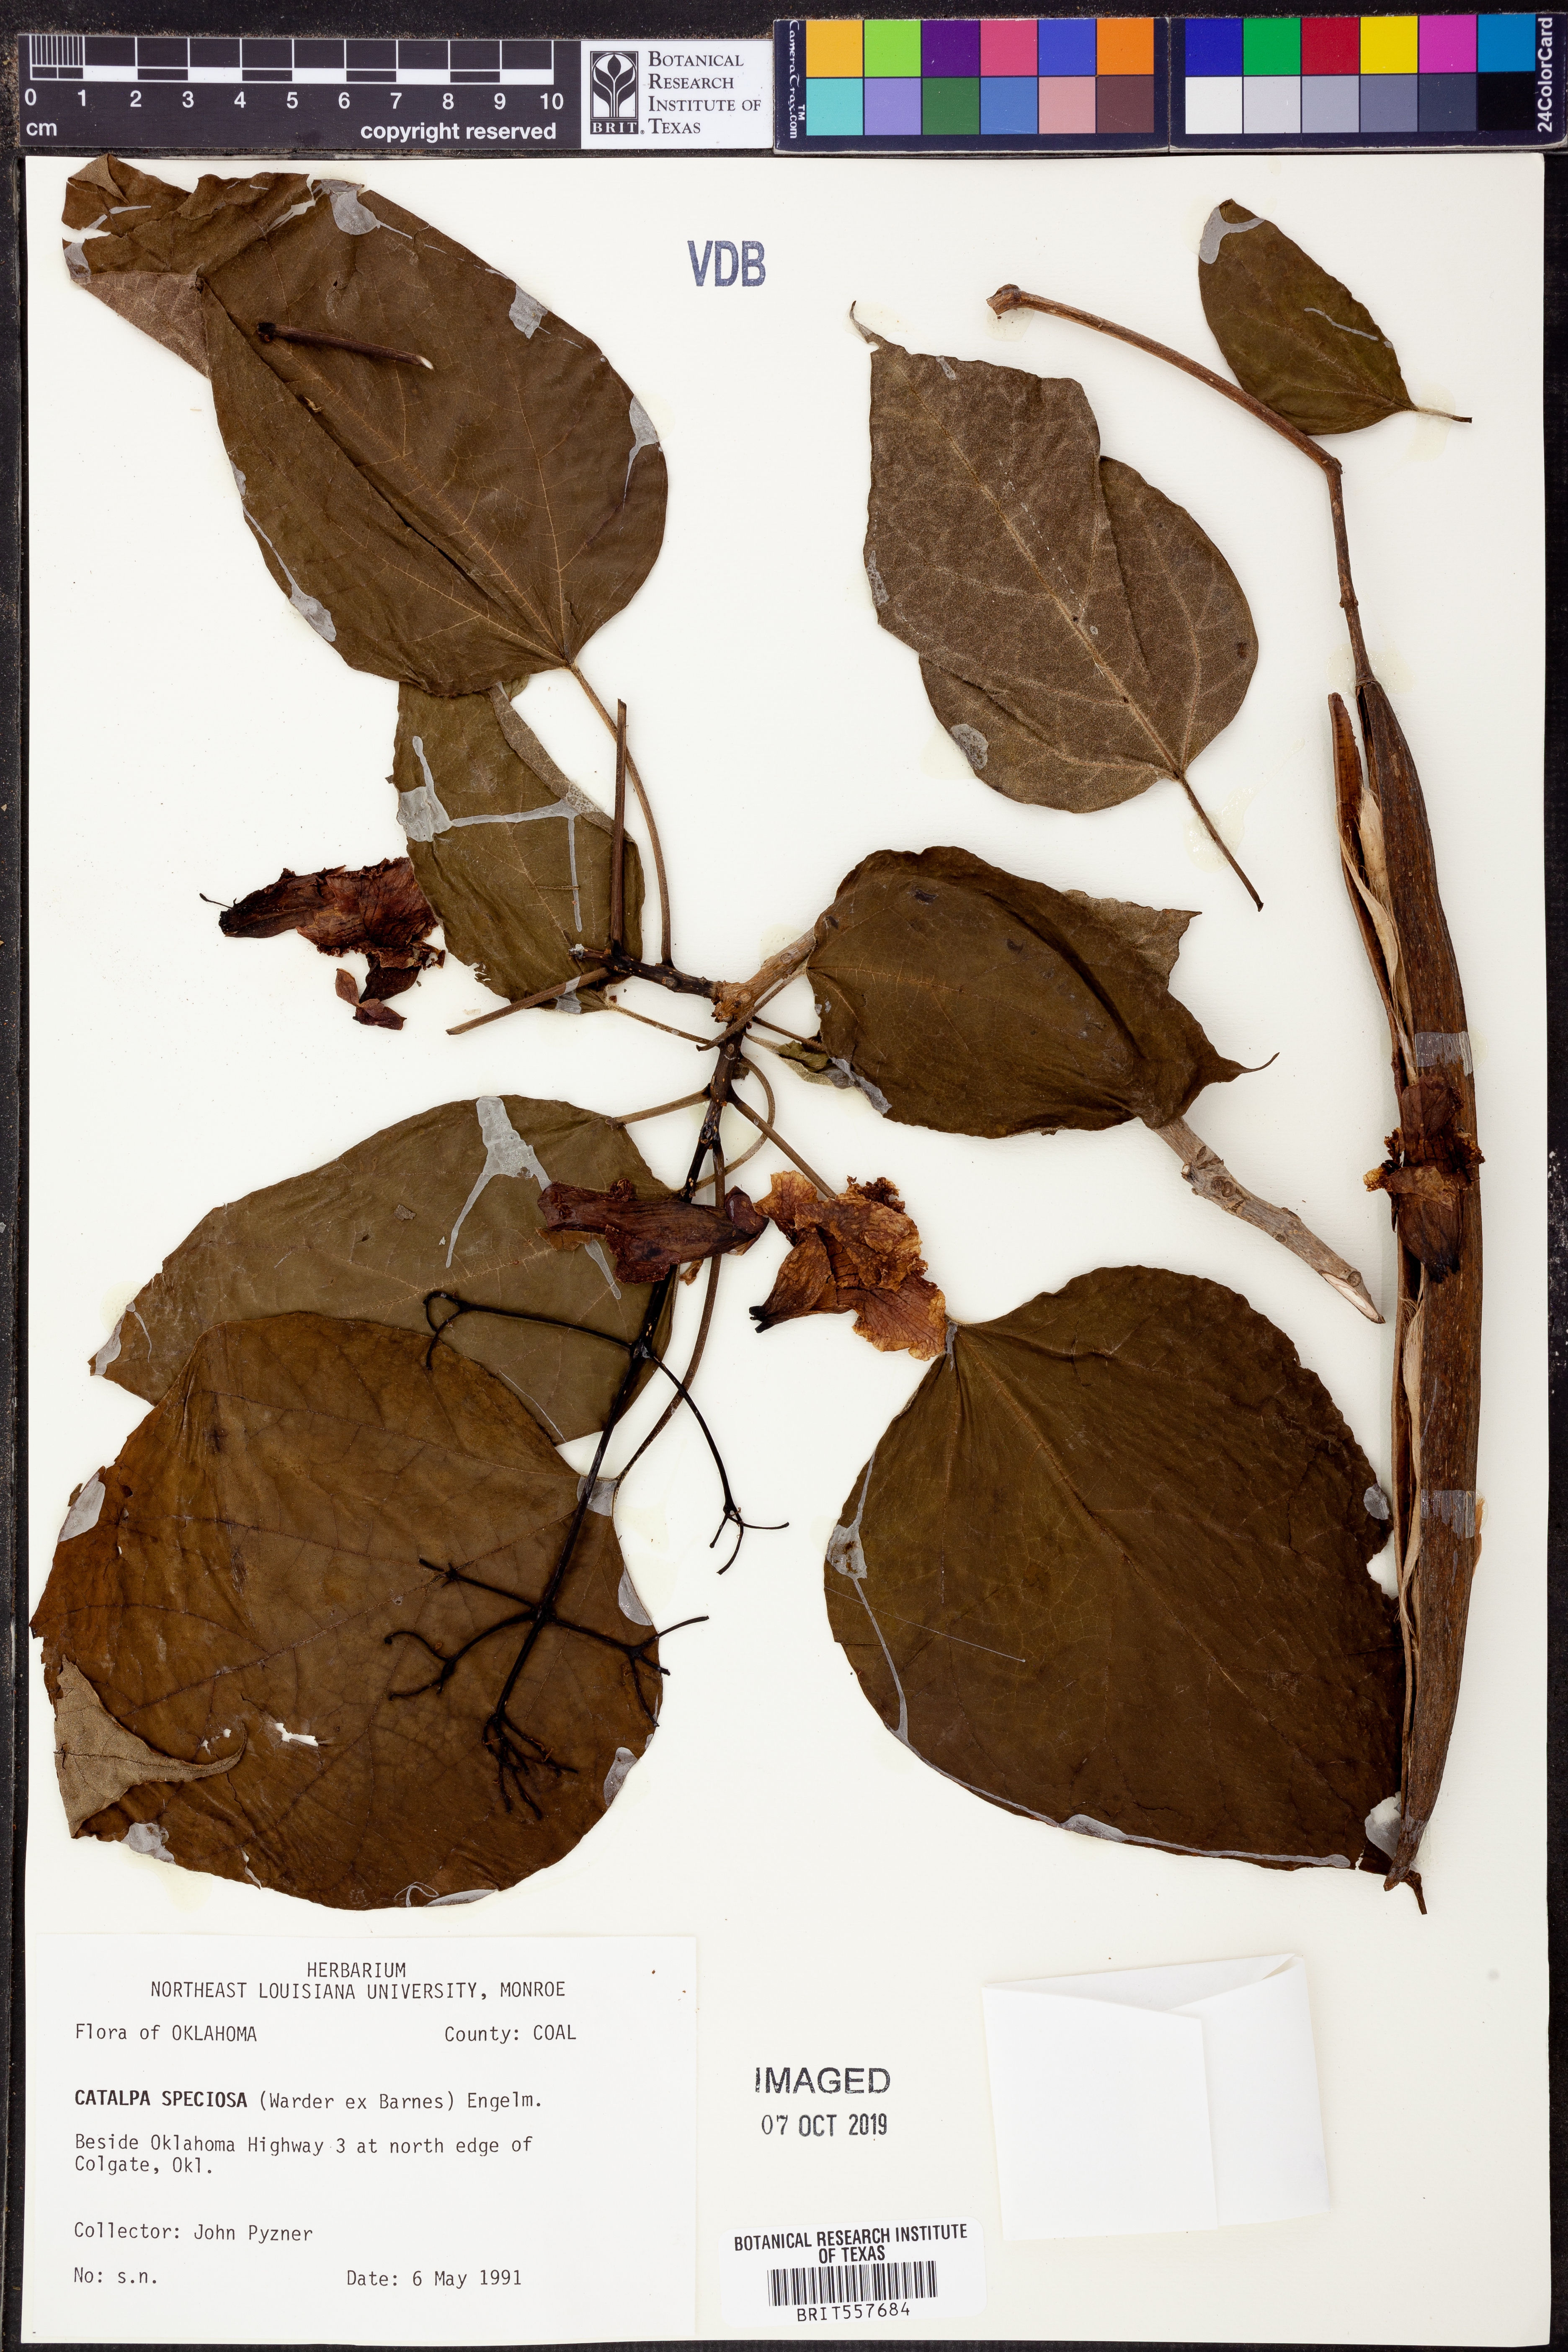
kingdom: Plantae
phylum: Tracheophyta
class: Magnoliopsida
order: Lamiales
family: Bignoniaceae
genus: Catalpa
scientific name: Catalpa speciosa
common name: Northern catalpa
